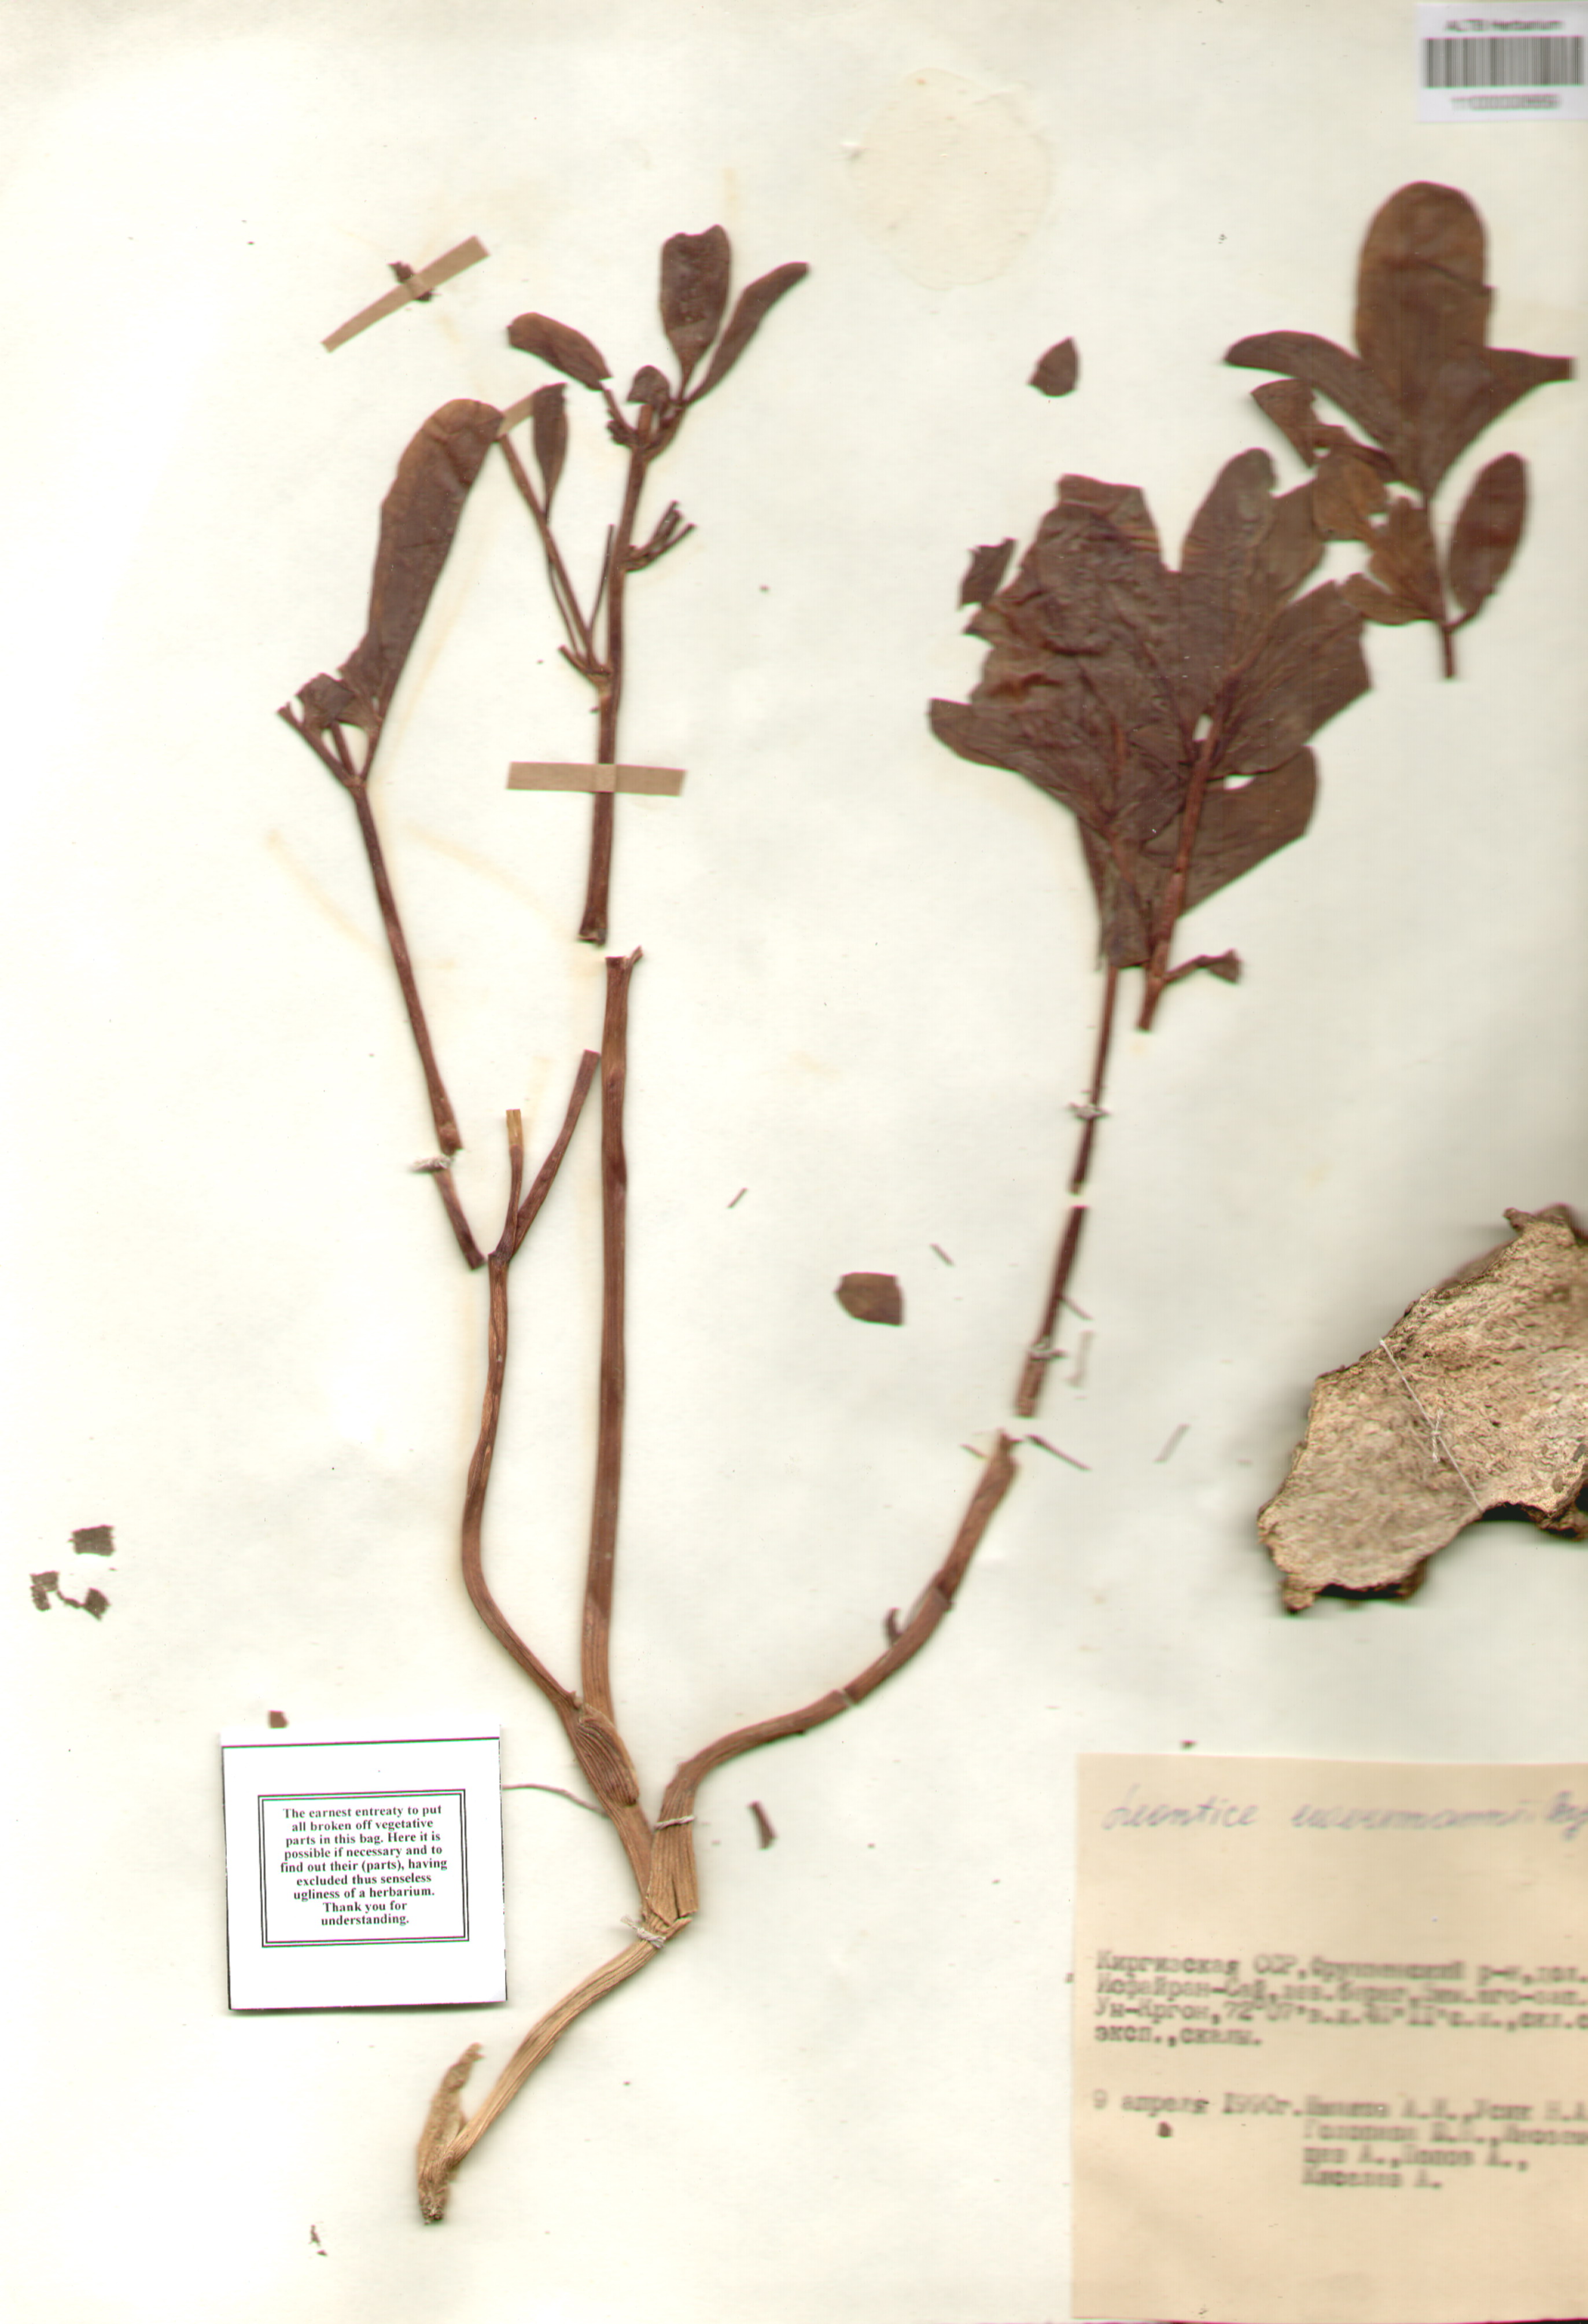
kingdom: Plantae
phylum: Tracheophyta
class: Magnoliopsida
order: Ranunculales
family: Berberidaceae
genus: Leontice
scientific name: Leontice leontopetalum
